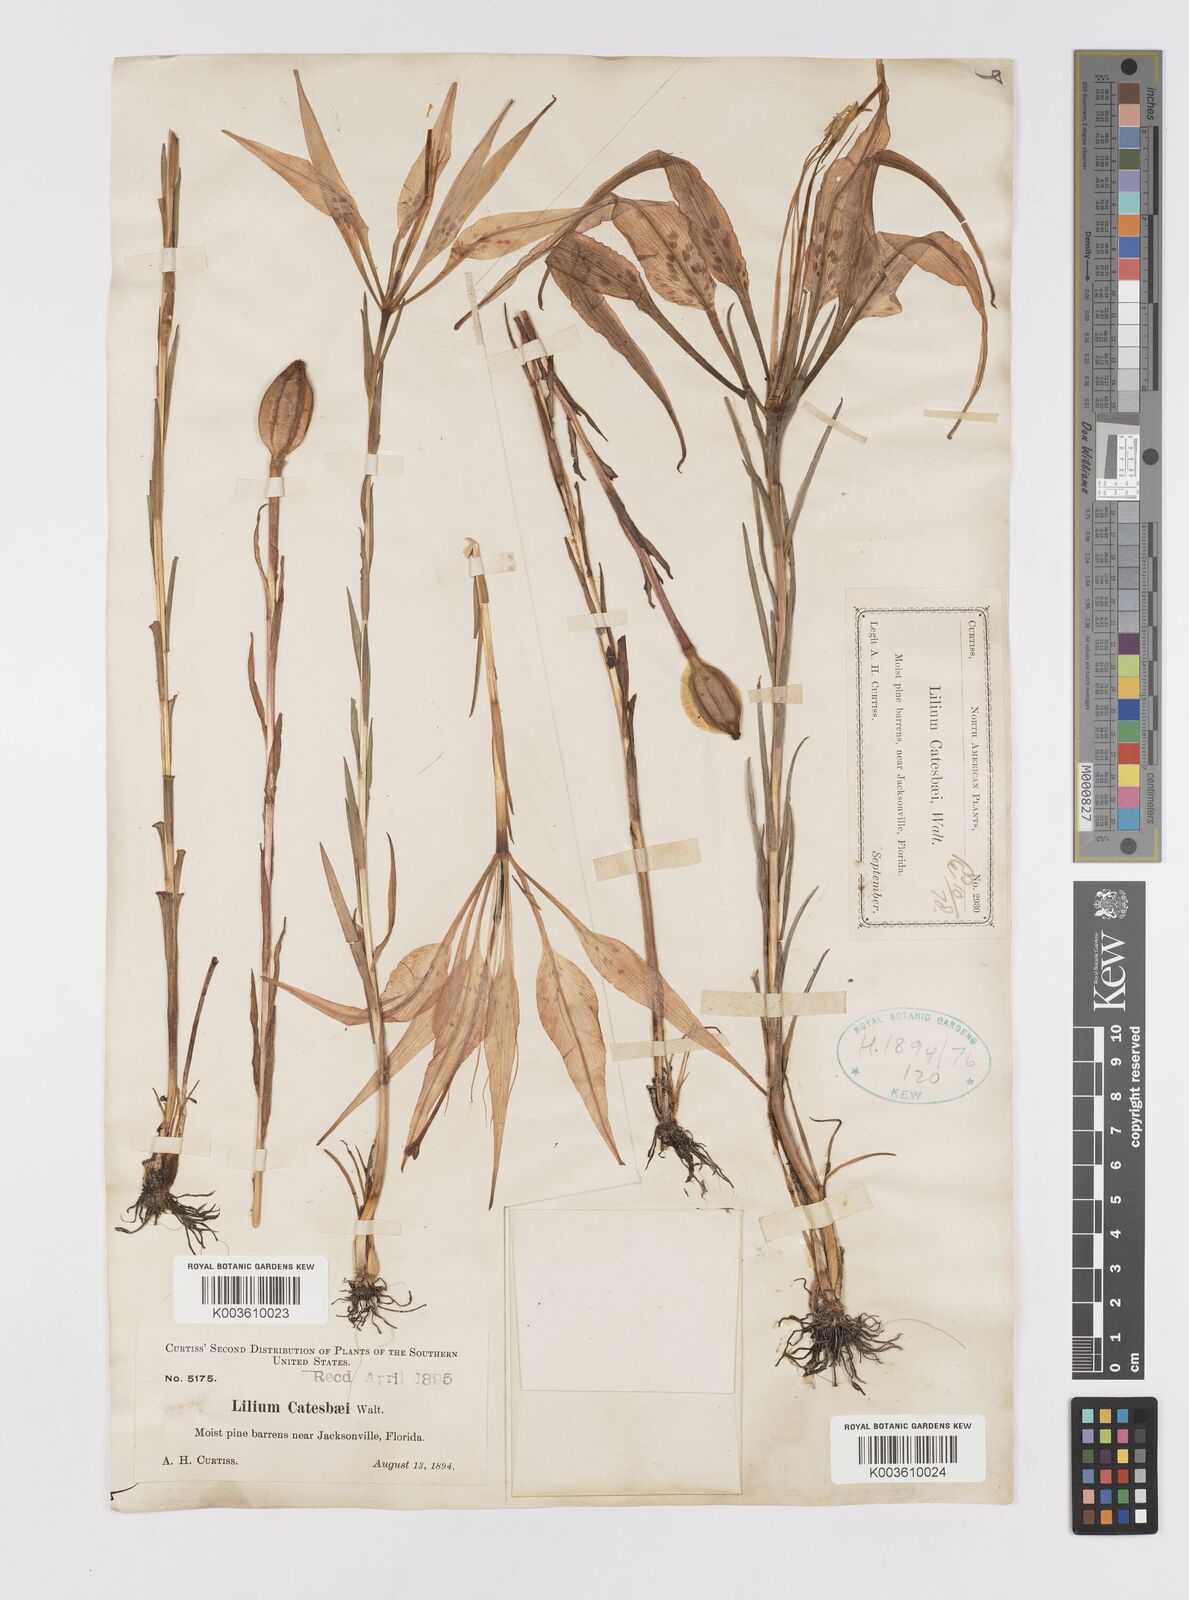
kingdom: Plantae
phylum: Tracheophyta
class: Liliopsida
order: Liliales
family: Liliaceae
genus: Lilium
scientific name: Lilium catesbaei
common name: Catesby's lily
